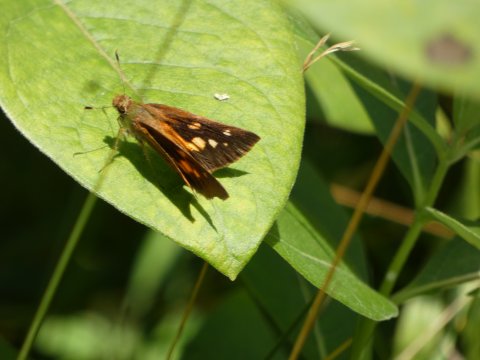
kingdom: Animalia
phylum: Arthropoda
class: Insecta
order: Lepidoptera
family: Hesperiidae
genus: Poanes
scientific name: Poanes viator
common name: Broad-winged Skipper
